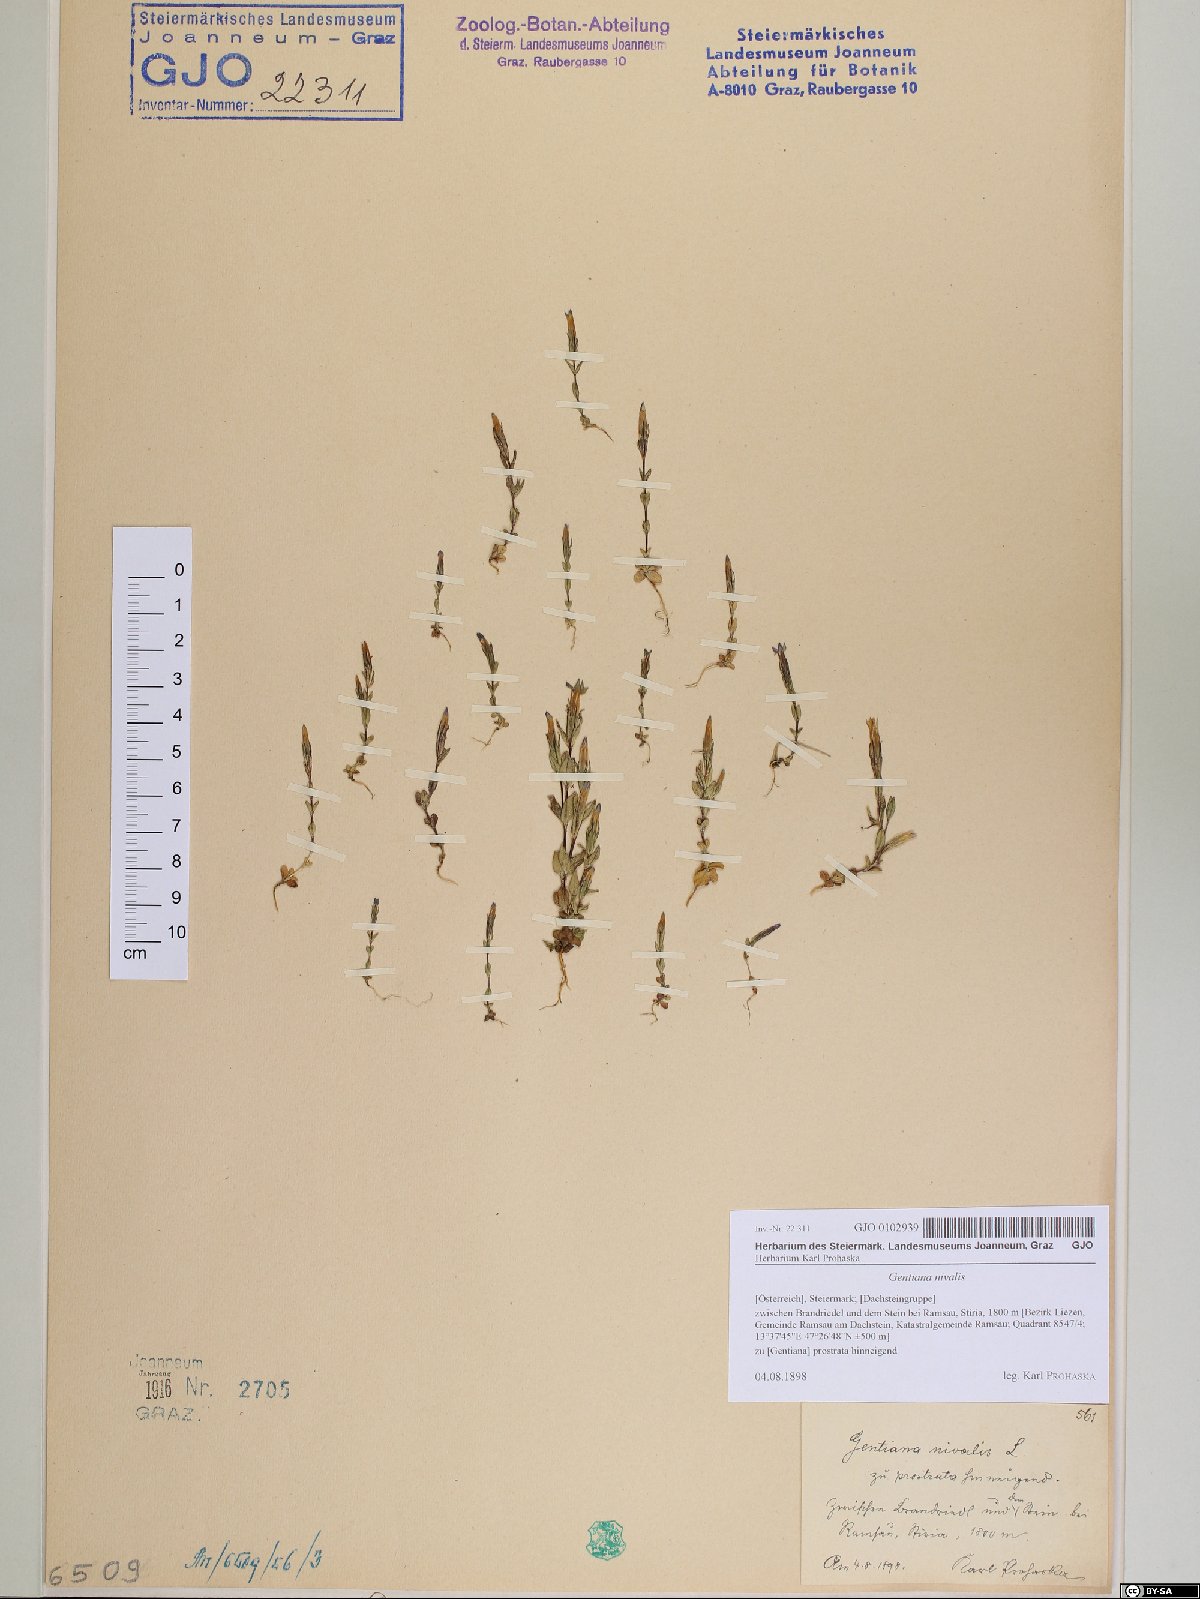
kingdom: Plantae
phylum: Tracheophyta
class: Magnoliopsida
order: Gentianales
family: Gentianaceae
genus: Gentiana
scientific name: Gentiana nivalis
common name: Alpine gentian
